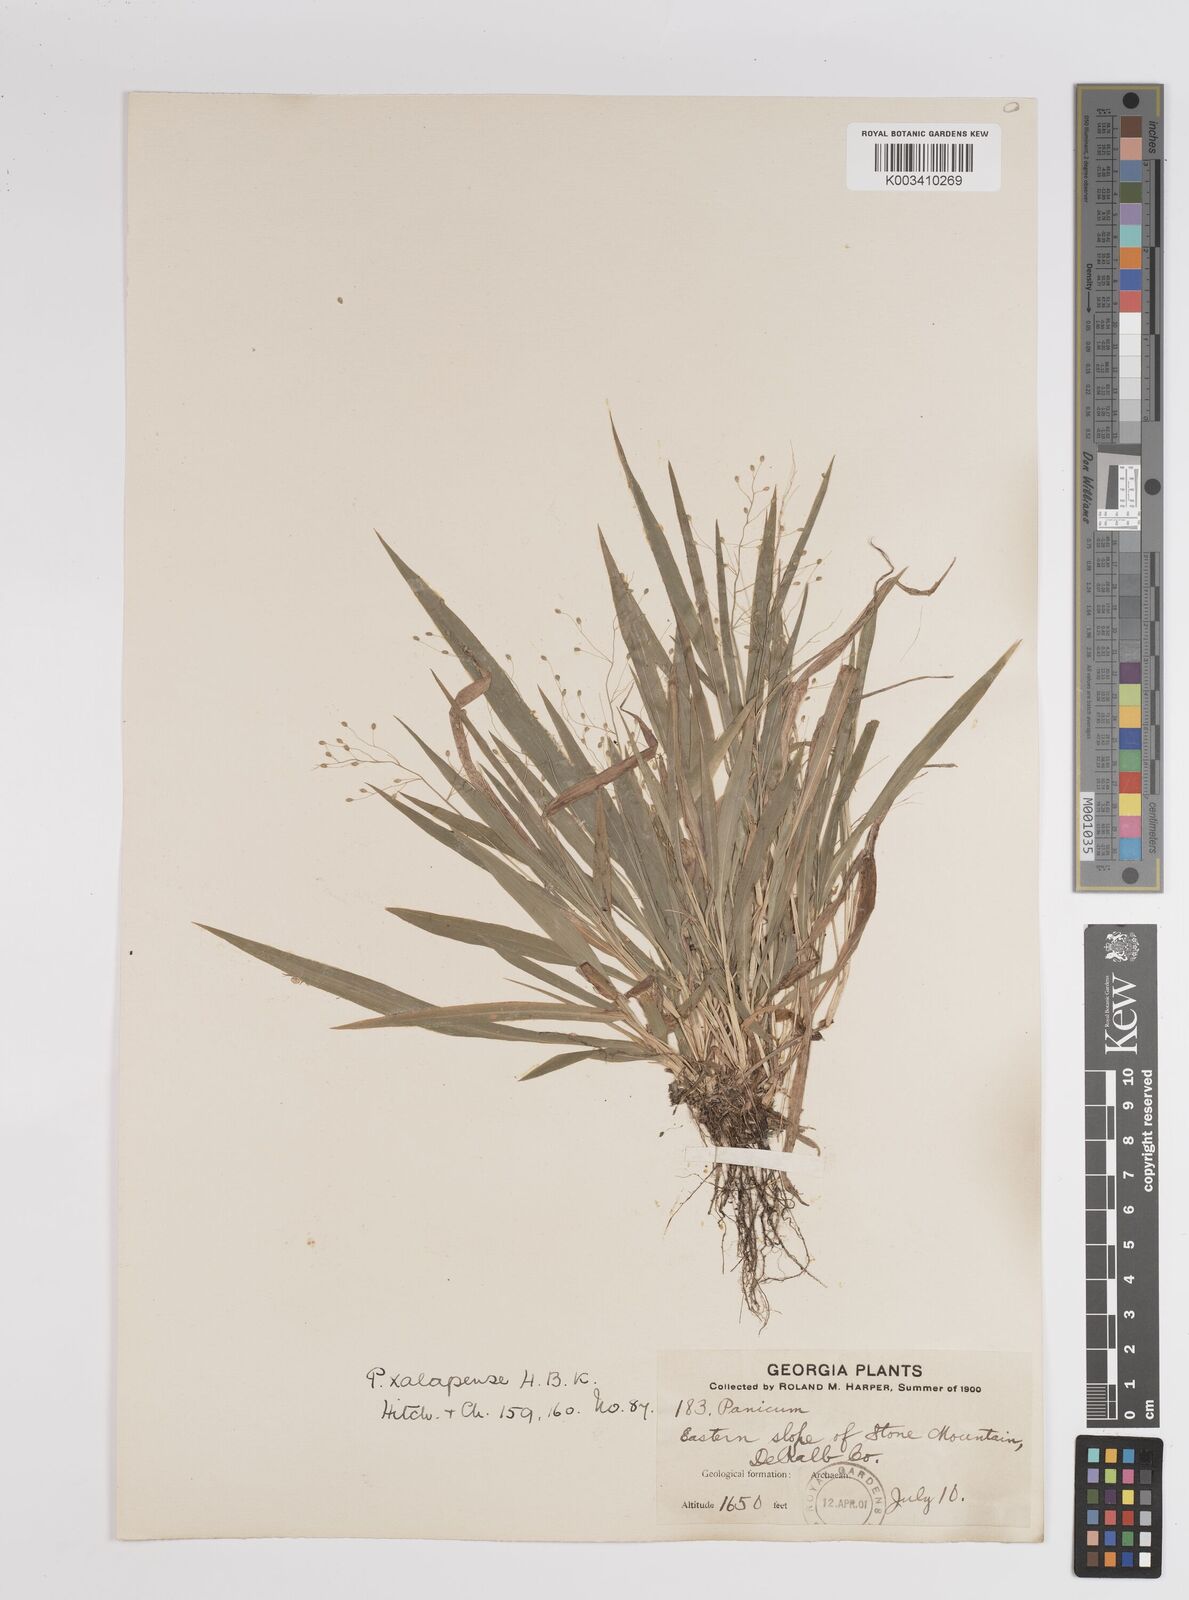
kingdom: Plantae
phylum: Tracheophyta
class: Liliopsida
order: Poales
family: Poaceae
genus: Dichanthelium
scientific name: Dichanthelium laxiflorum
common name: Soft-tuft panic grass
